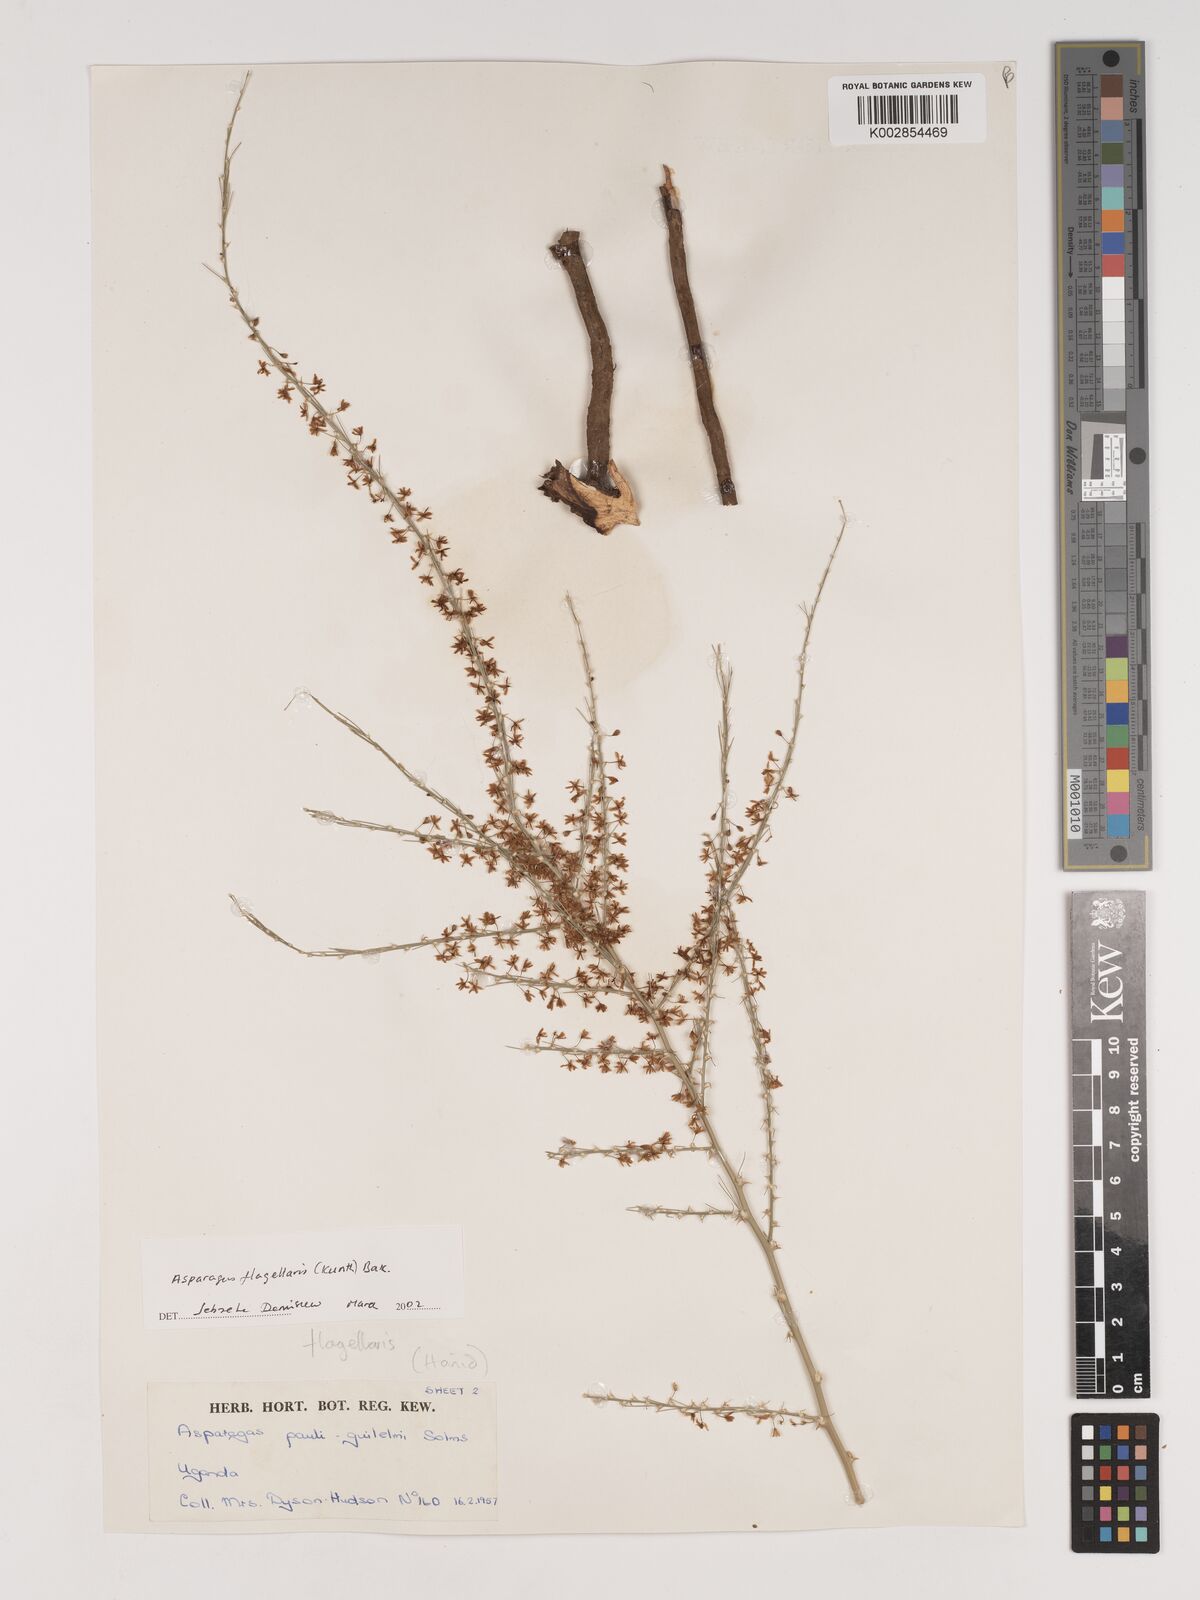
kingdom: Plantae
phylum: Tracheophyta
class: Liliopsida
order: Asparagales
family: Asparagaceae
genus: Asparagus
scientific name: Asparagus flagellaris
